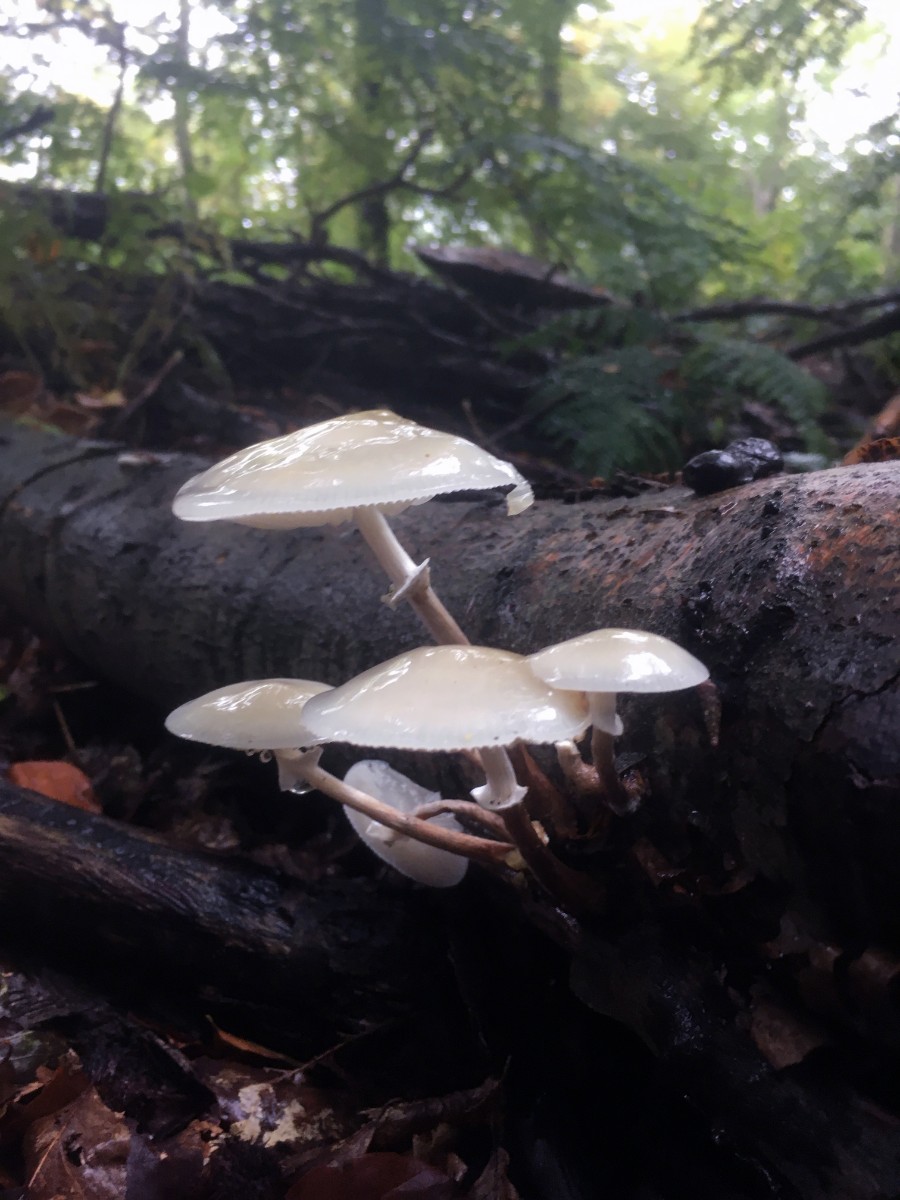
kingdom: Fungi
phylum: Basidiomycota
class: Agaricomycetes
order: Agaricales
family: Physalacriaceae
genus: Mucidula
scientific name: Mucidula mucida
